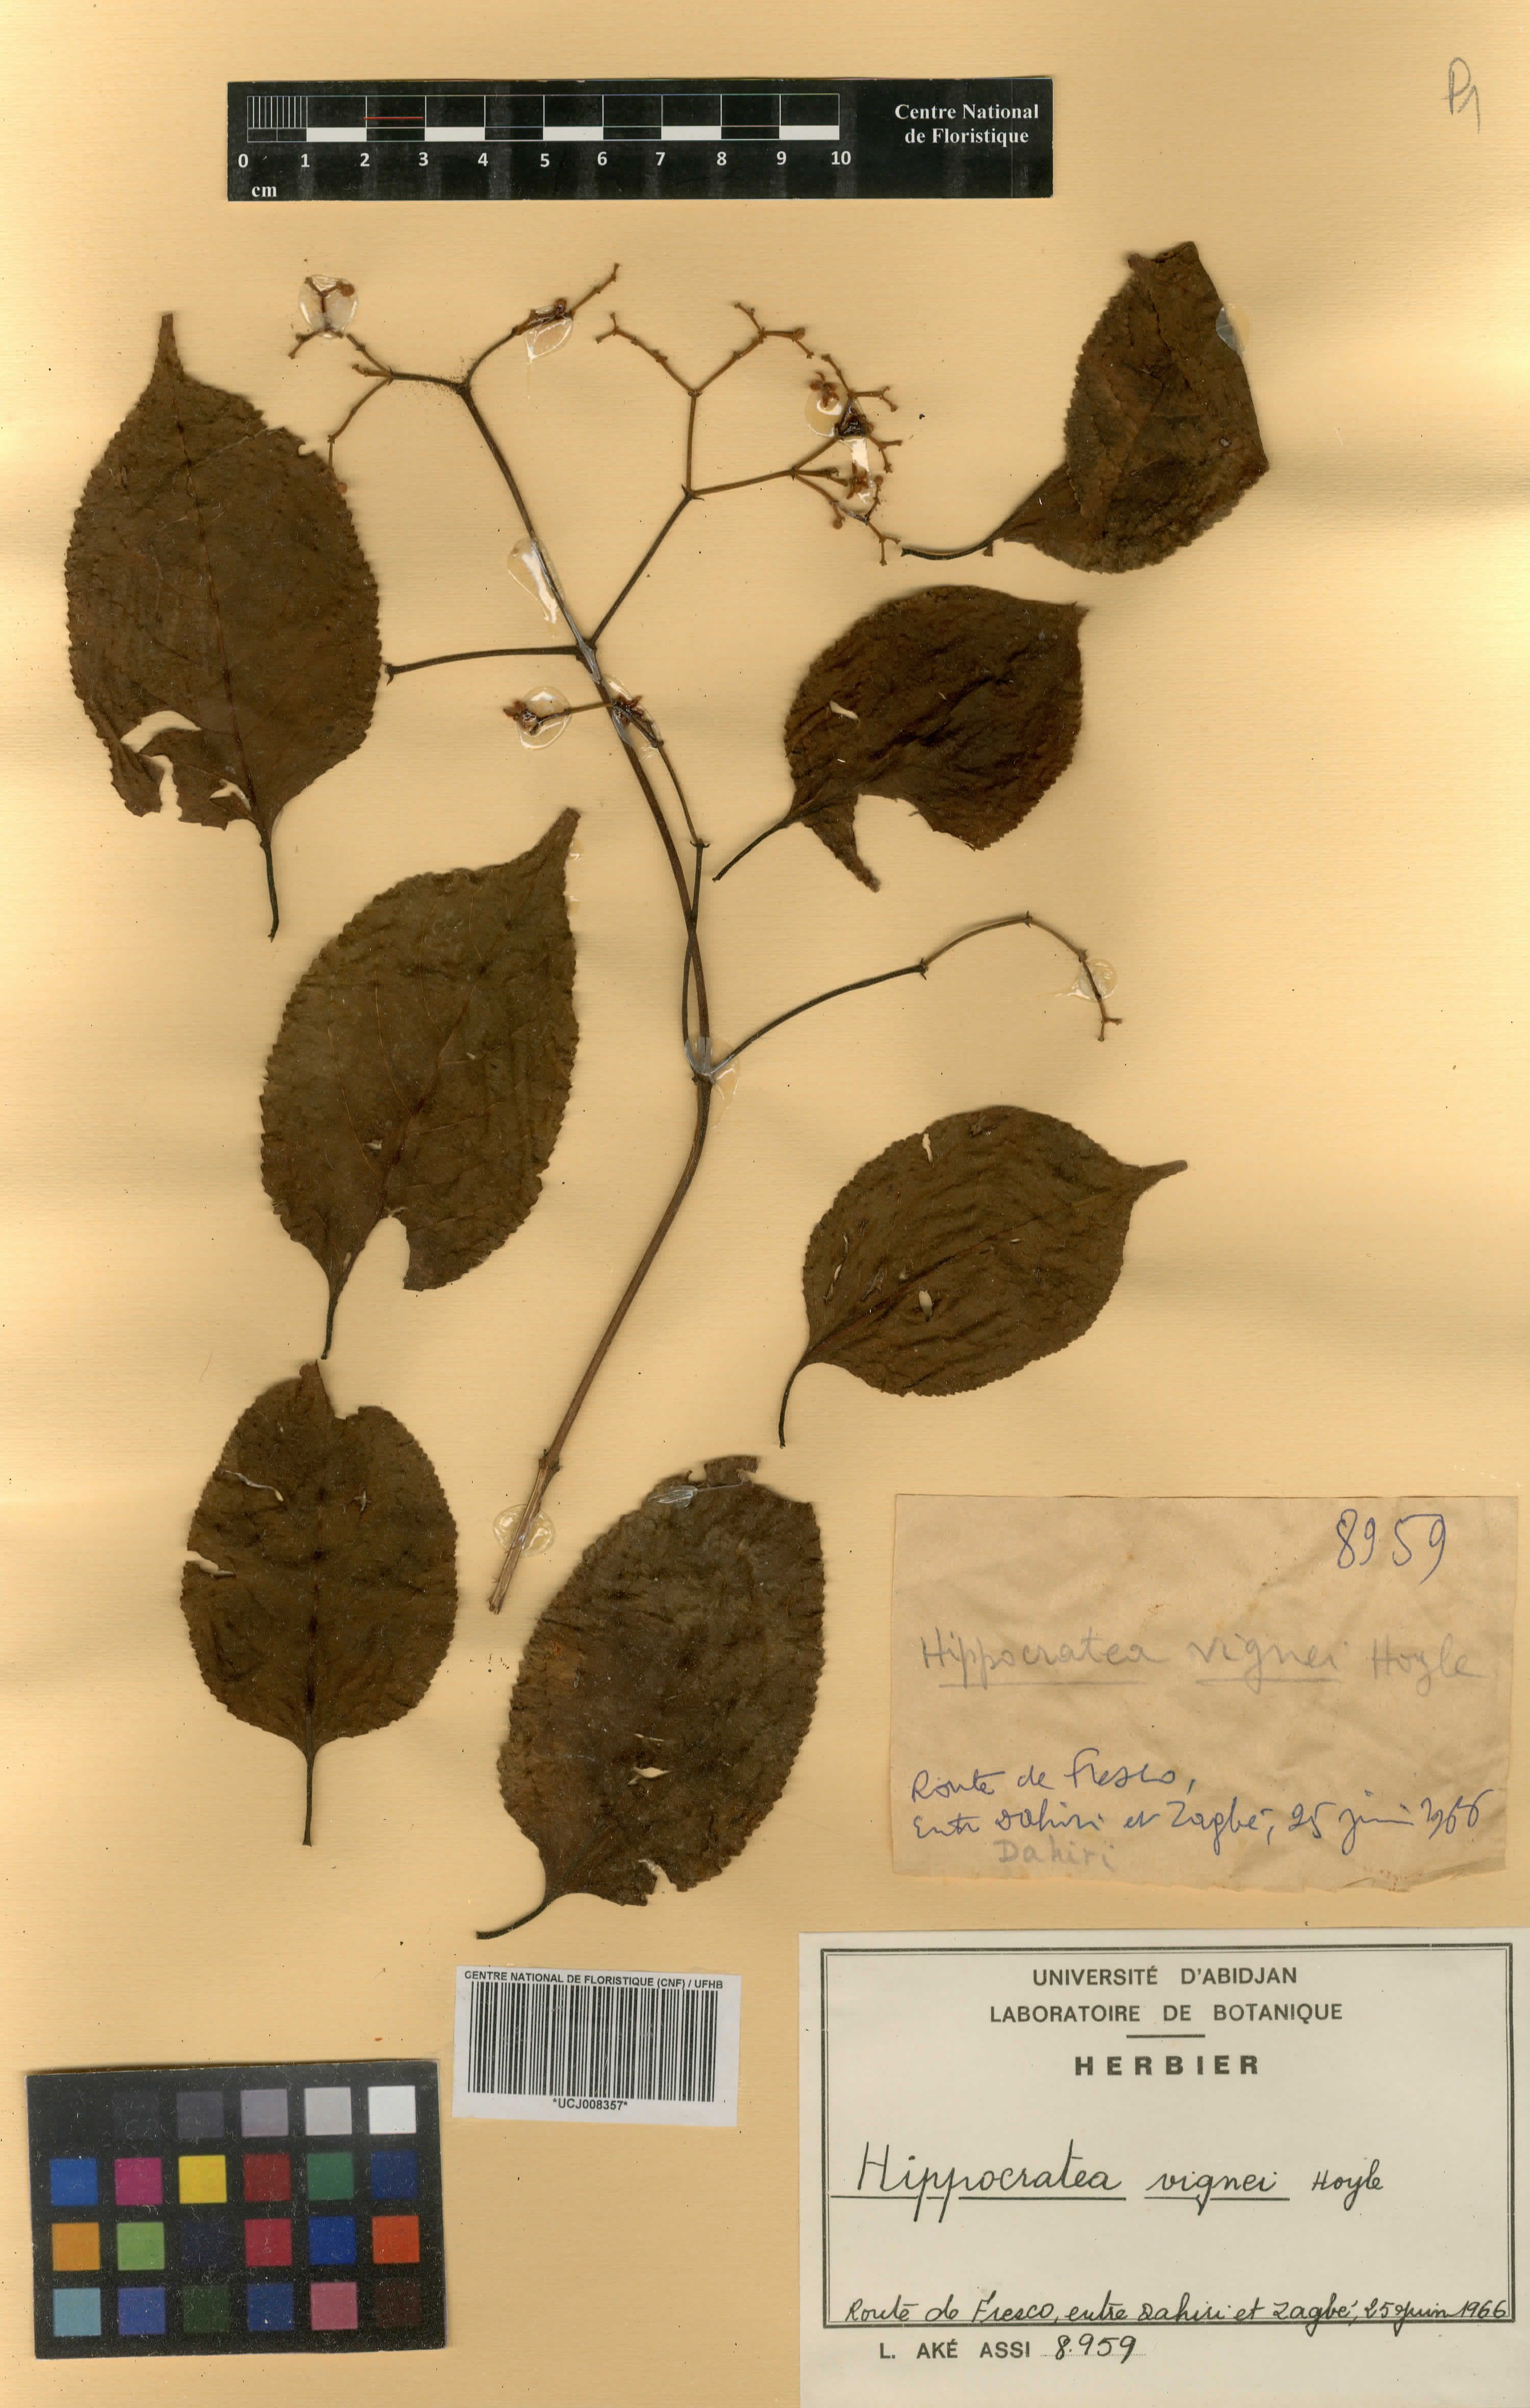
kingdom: Plantae
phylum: Tracheophyta
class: Magnoliopsida
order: Celastrales
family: Celastraceae
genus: Hippocratea
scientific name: Hippocratea
